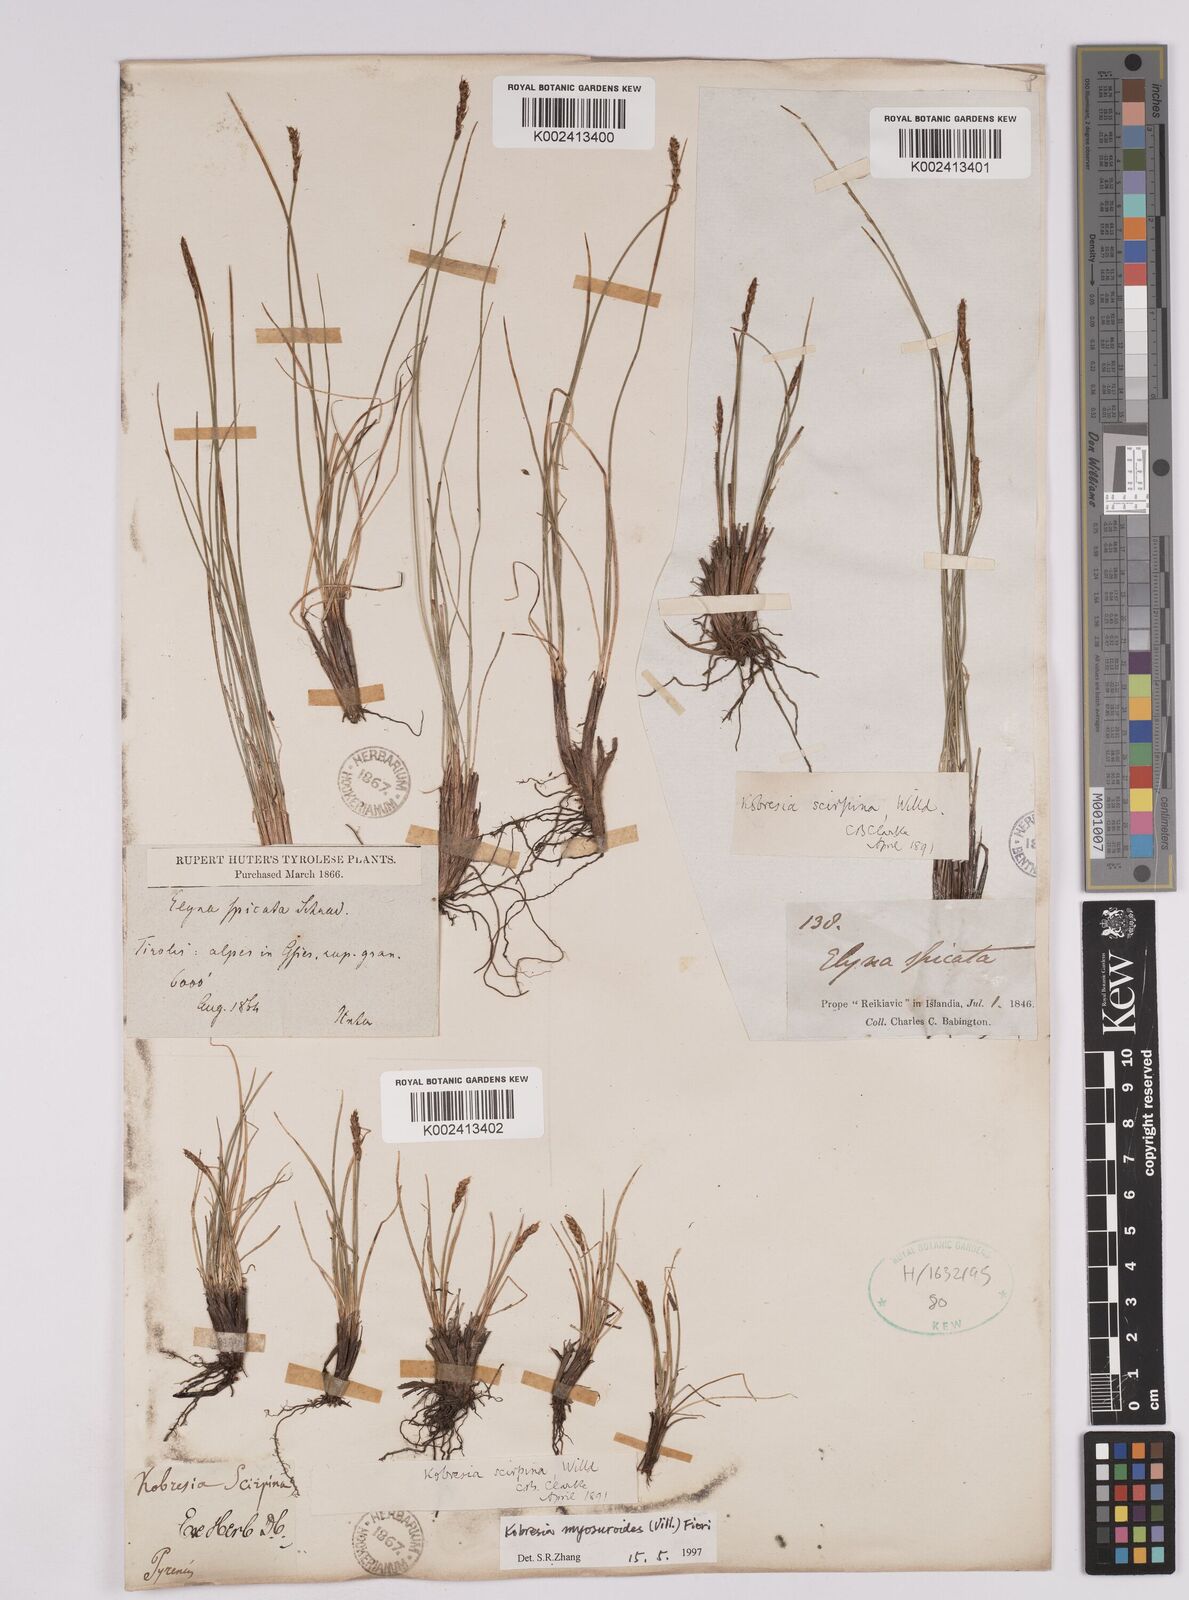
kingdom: Plantae
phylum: Tracheophyta
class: Liliopsida
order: Poales
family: Cyperaceae
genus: Carex
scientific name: Carex myosuroides
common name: Bellard's bog sedge
